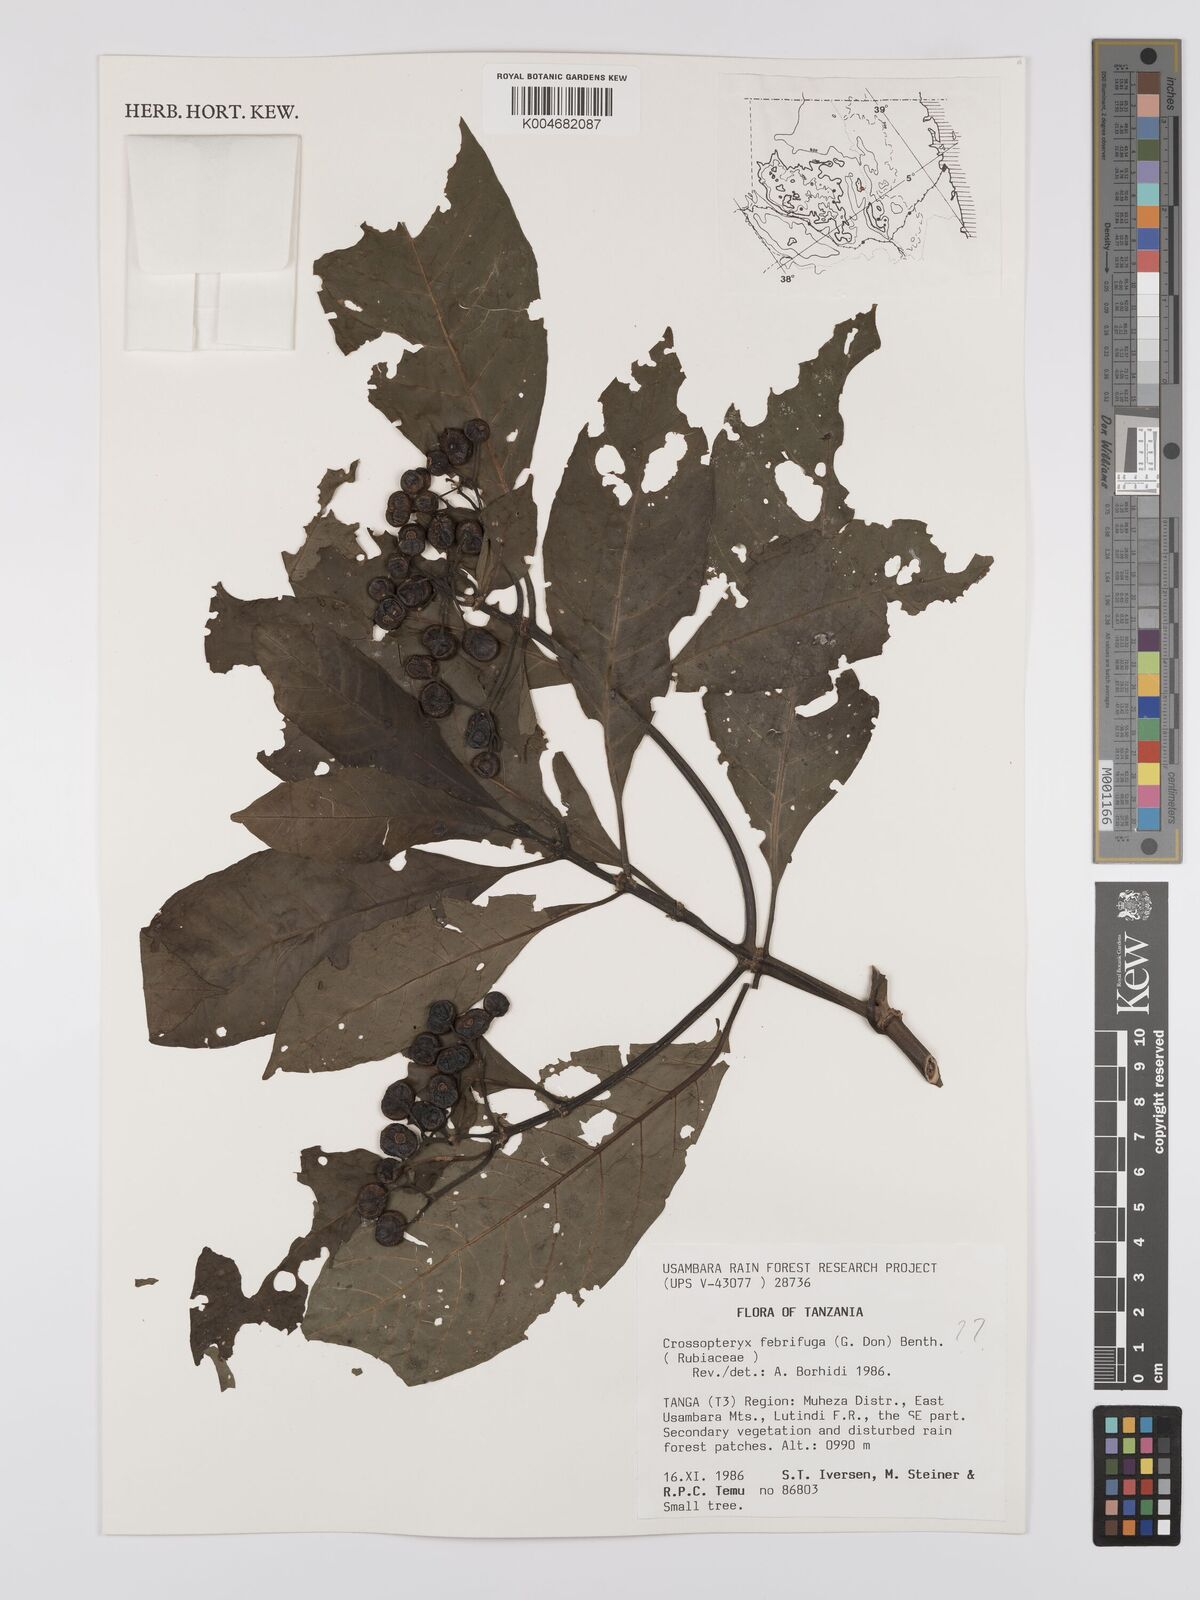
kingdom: Plantae
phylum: Tracheophyta
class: Magnoliopsida
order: Gentianales
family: Rubiaceae
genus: Crossopteryx
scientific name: Crossopteryx febrifuga
